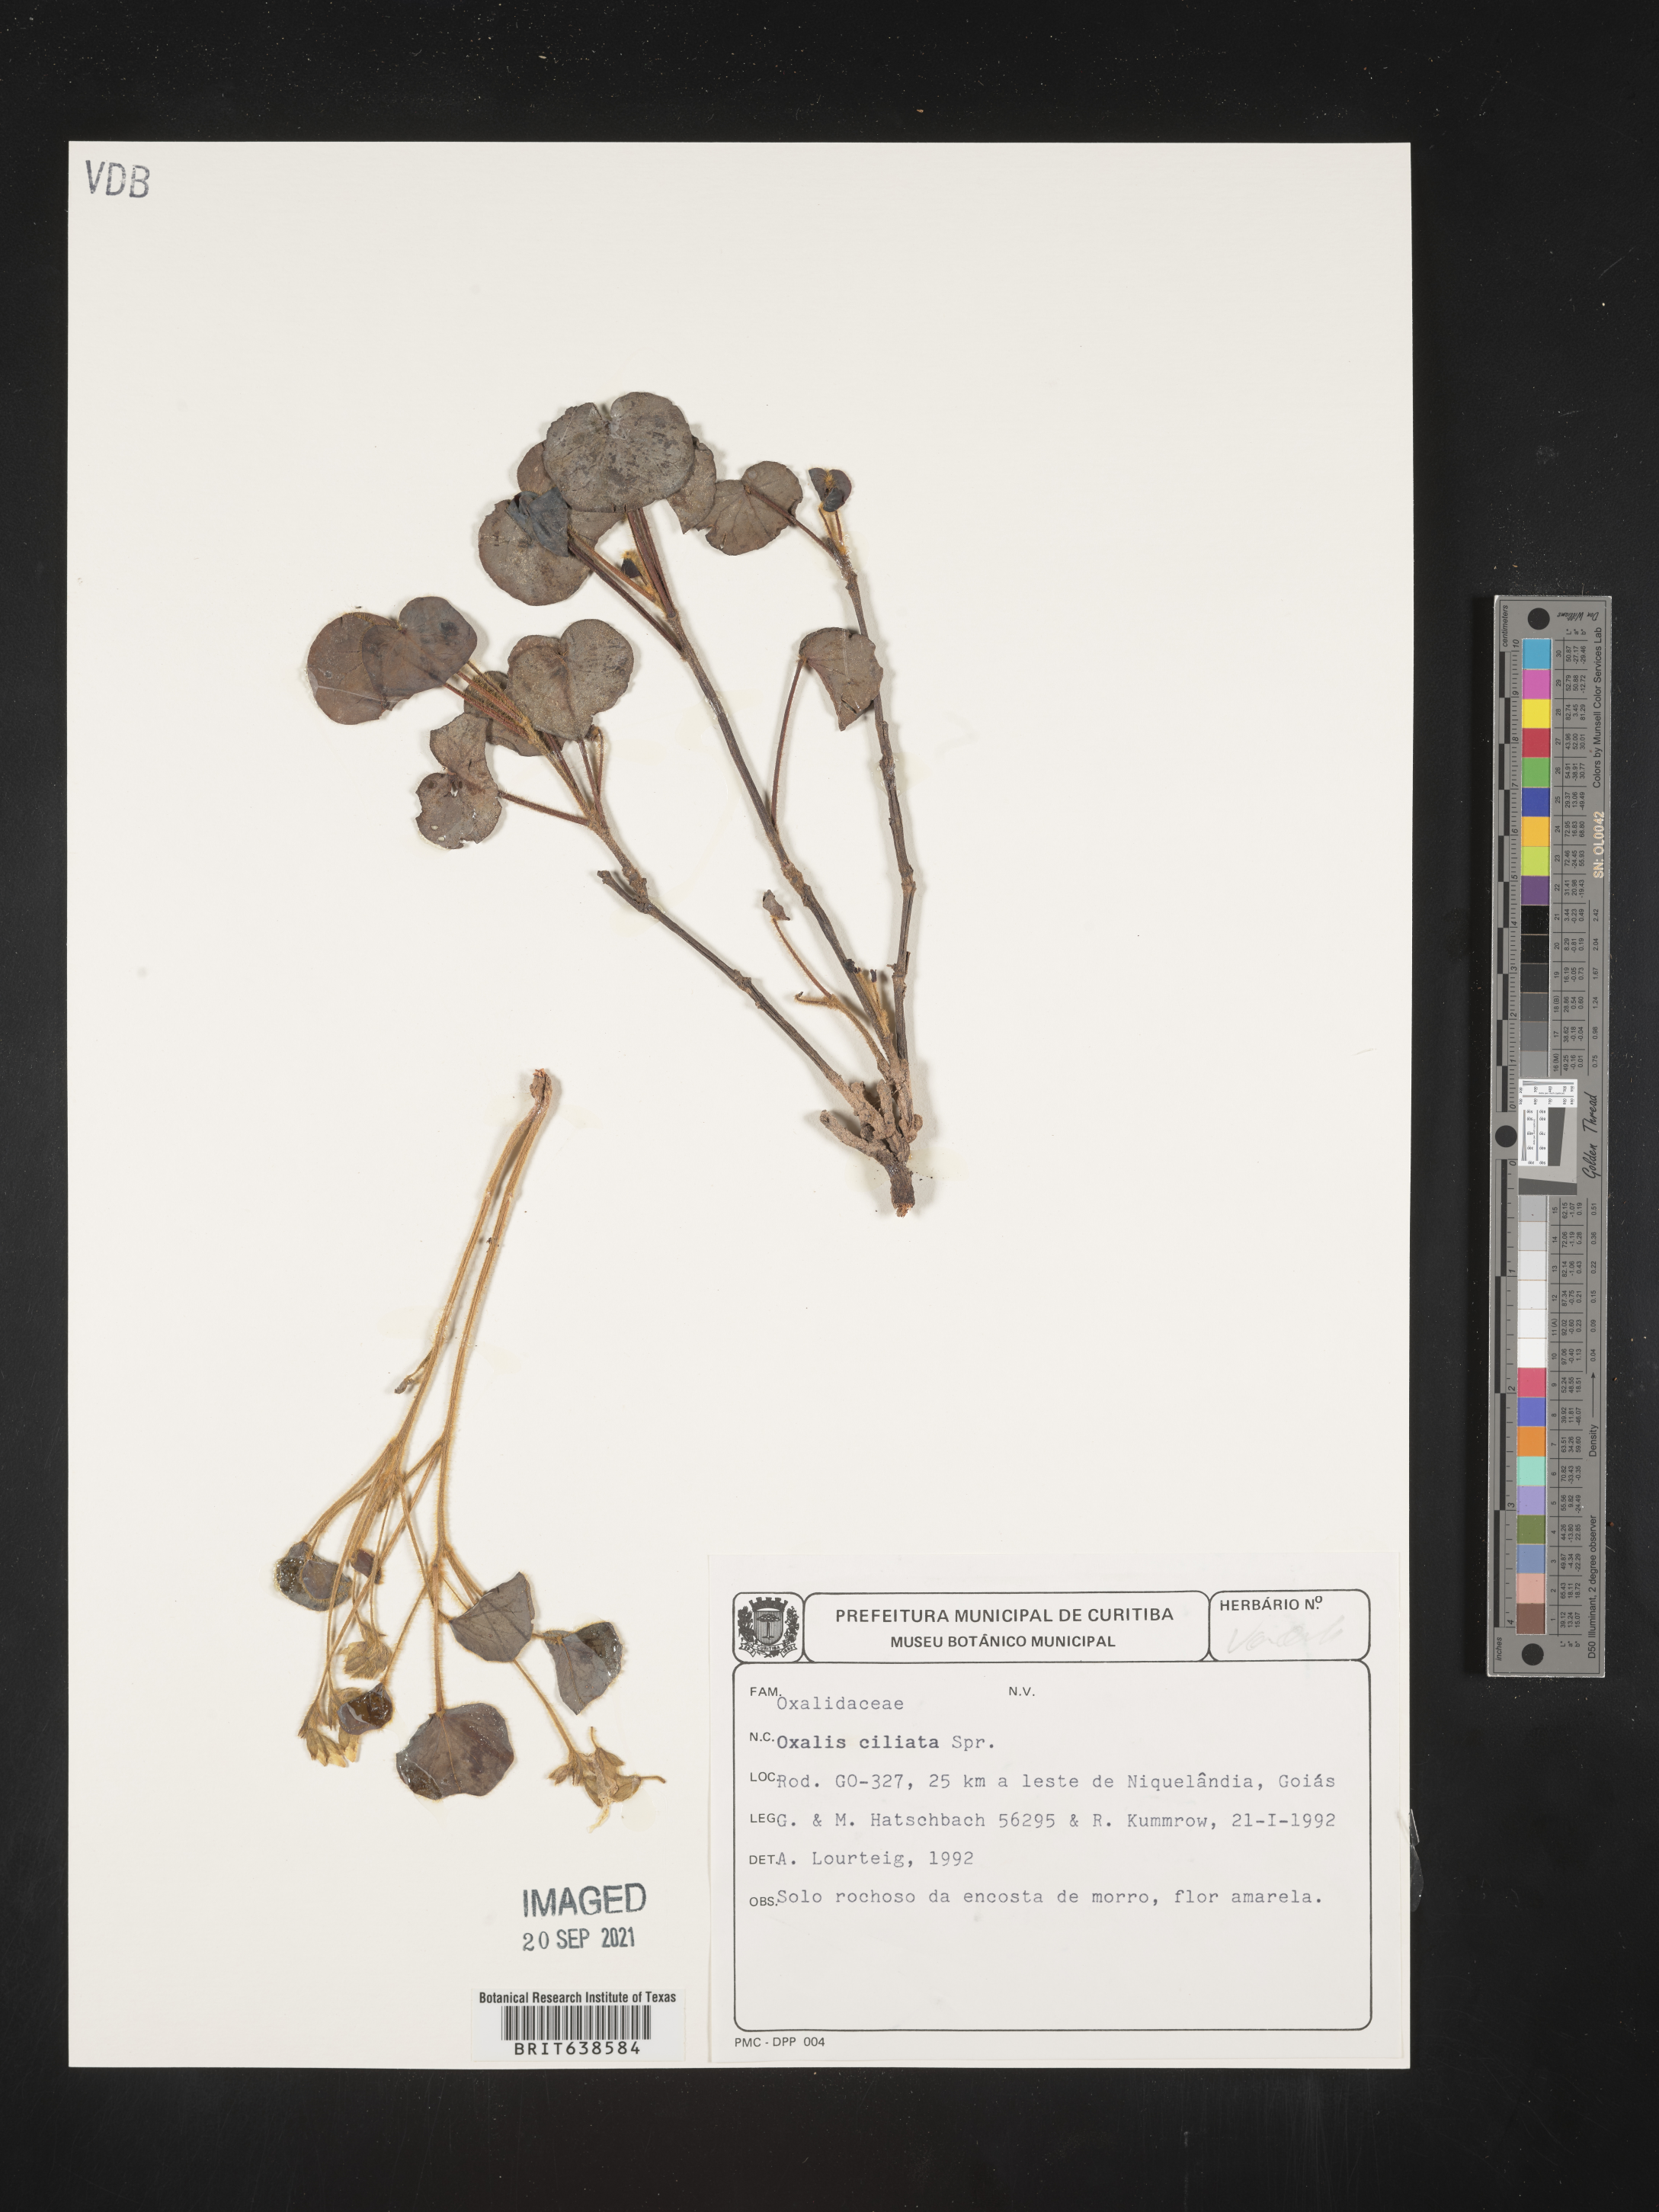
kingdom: Plantae
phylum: Tracheophyta
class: Magnoliopsida
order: Oxalidales
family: Oxalidaceae
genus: Oxalis
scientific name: Oxalis
